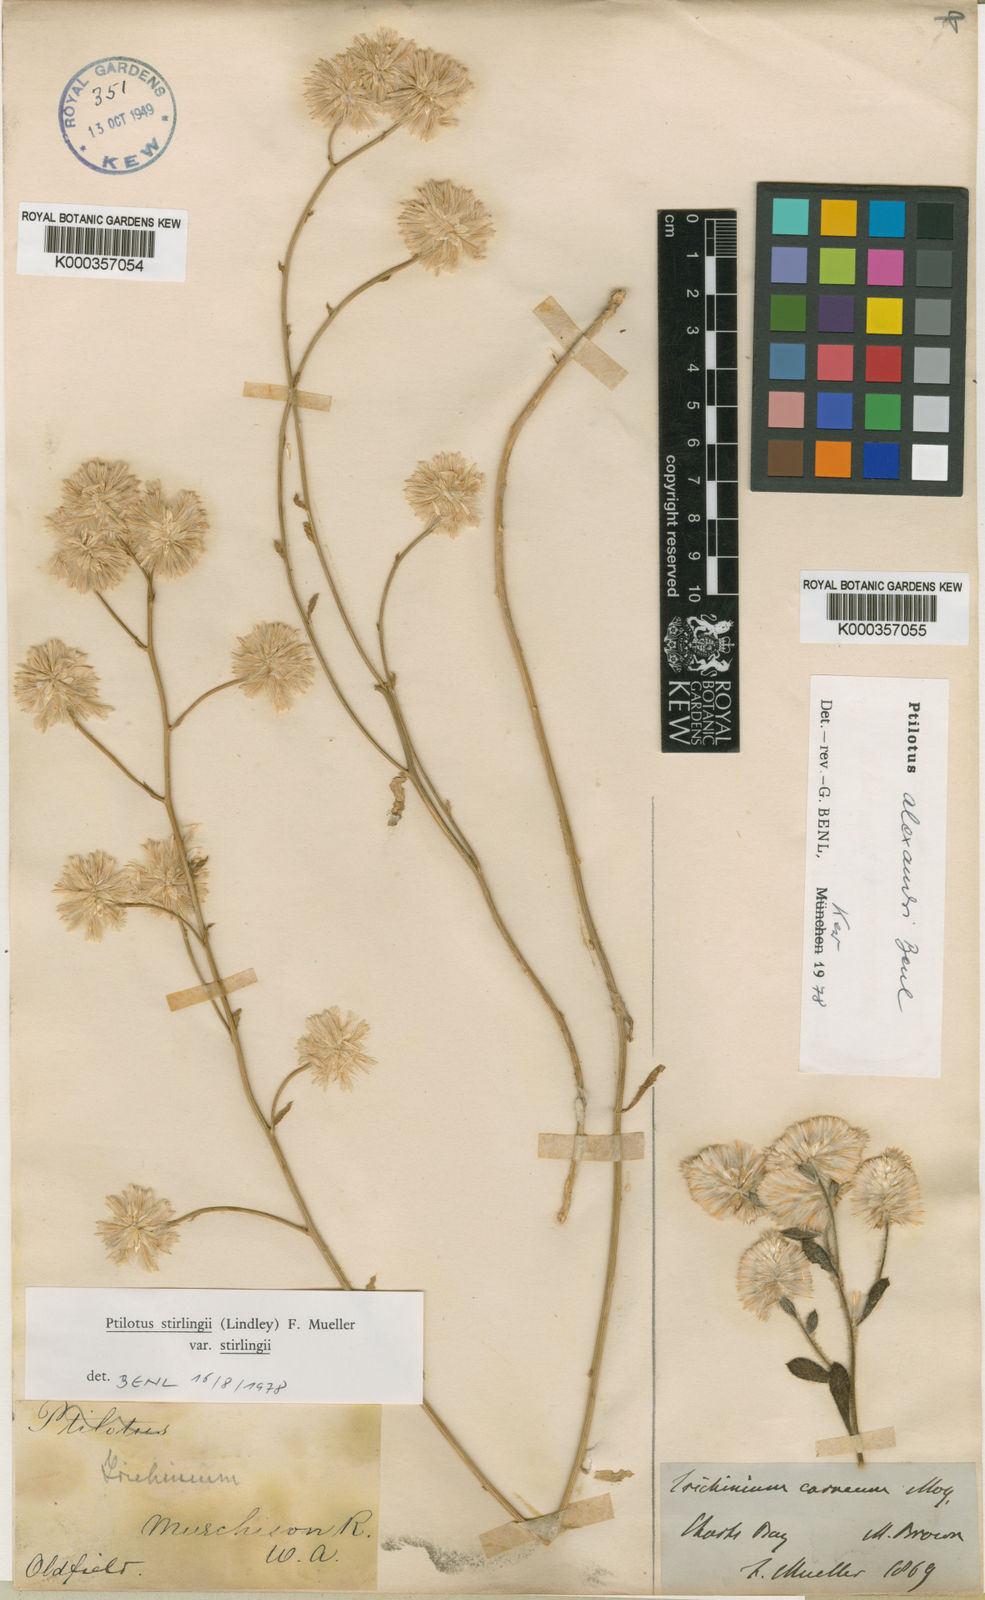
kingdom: Plantae
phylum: Tracheophyta
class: Magnoliopsida
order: Caryophyllales
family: Amaranthaceae
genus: Ptilotus
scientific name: Ptilotus
